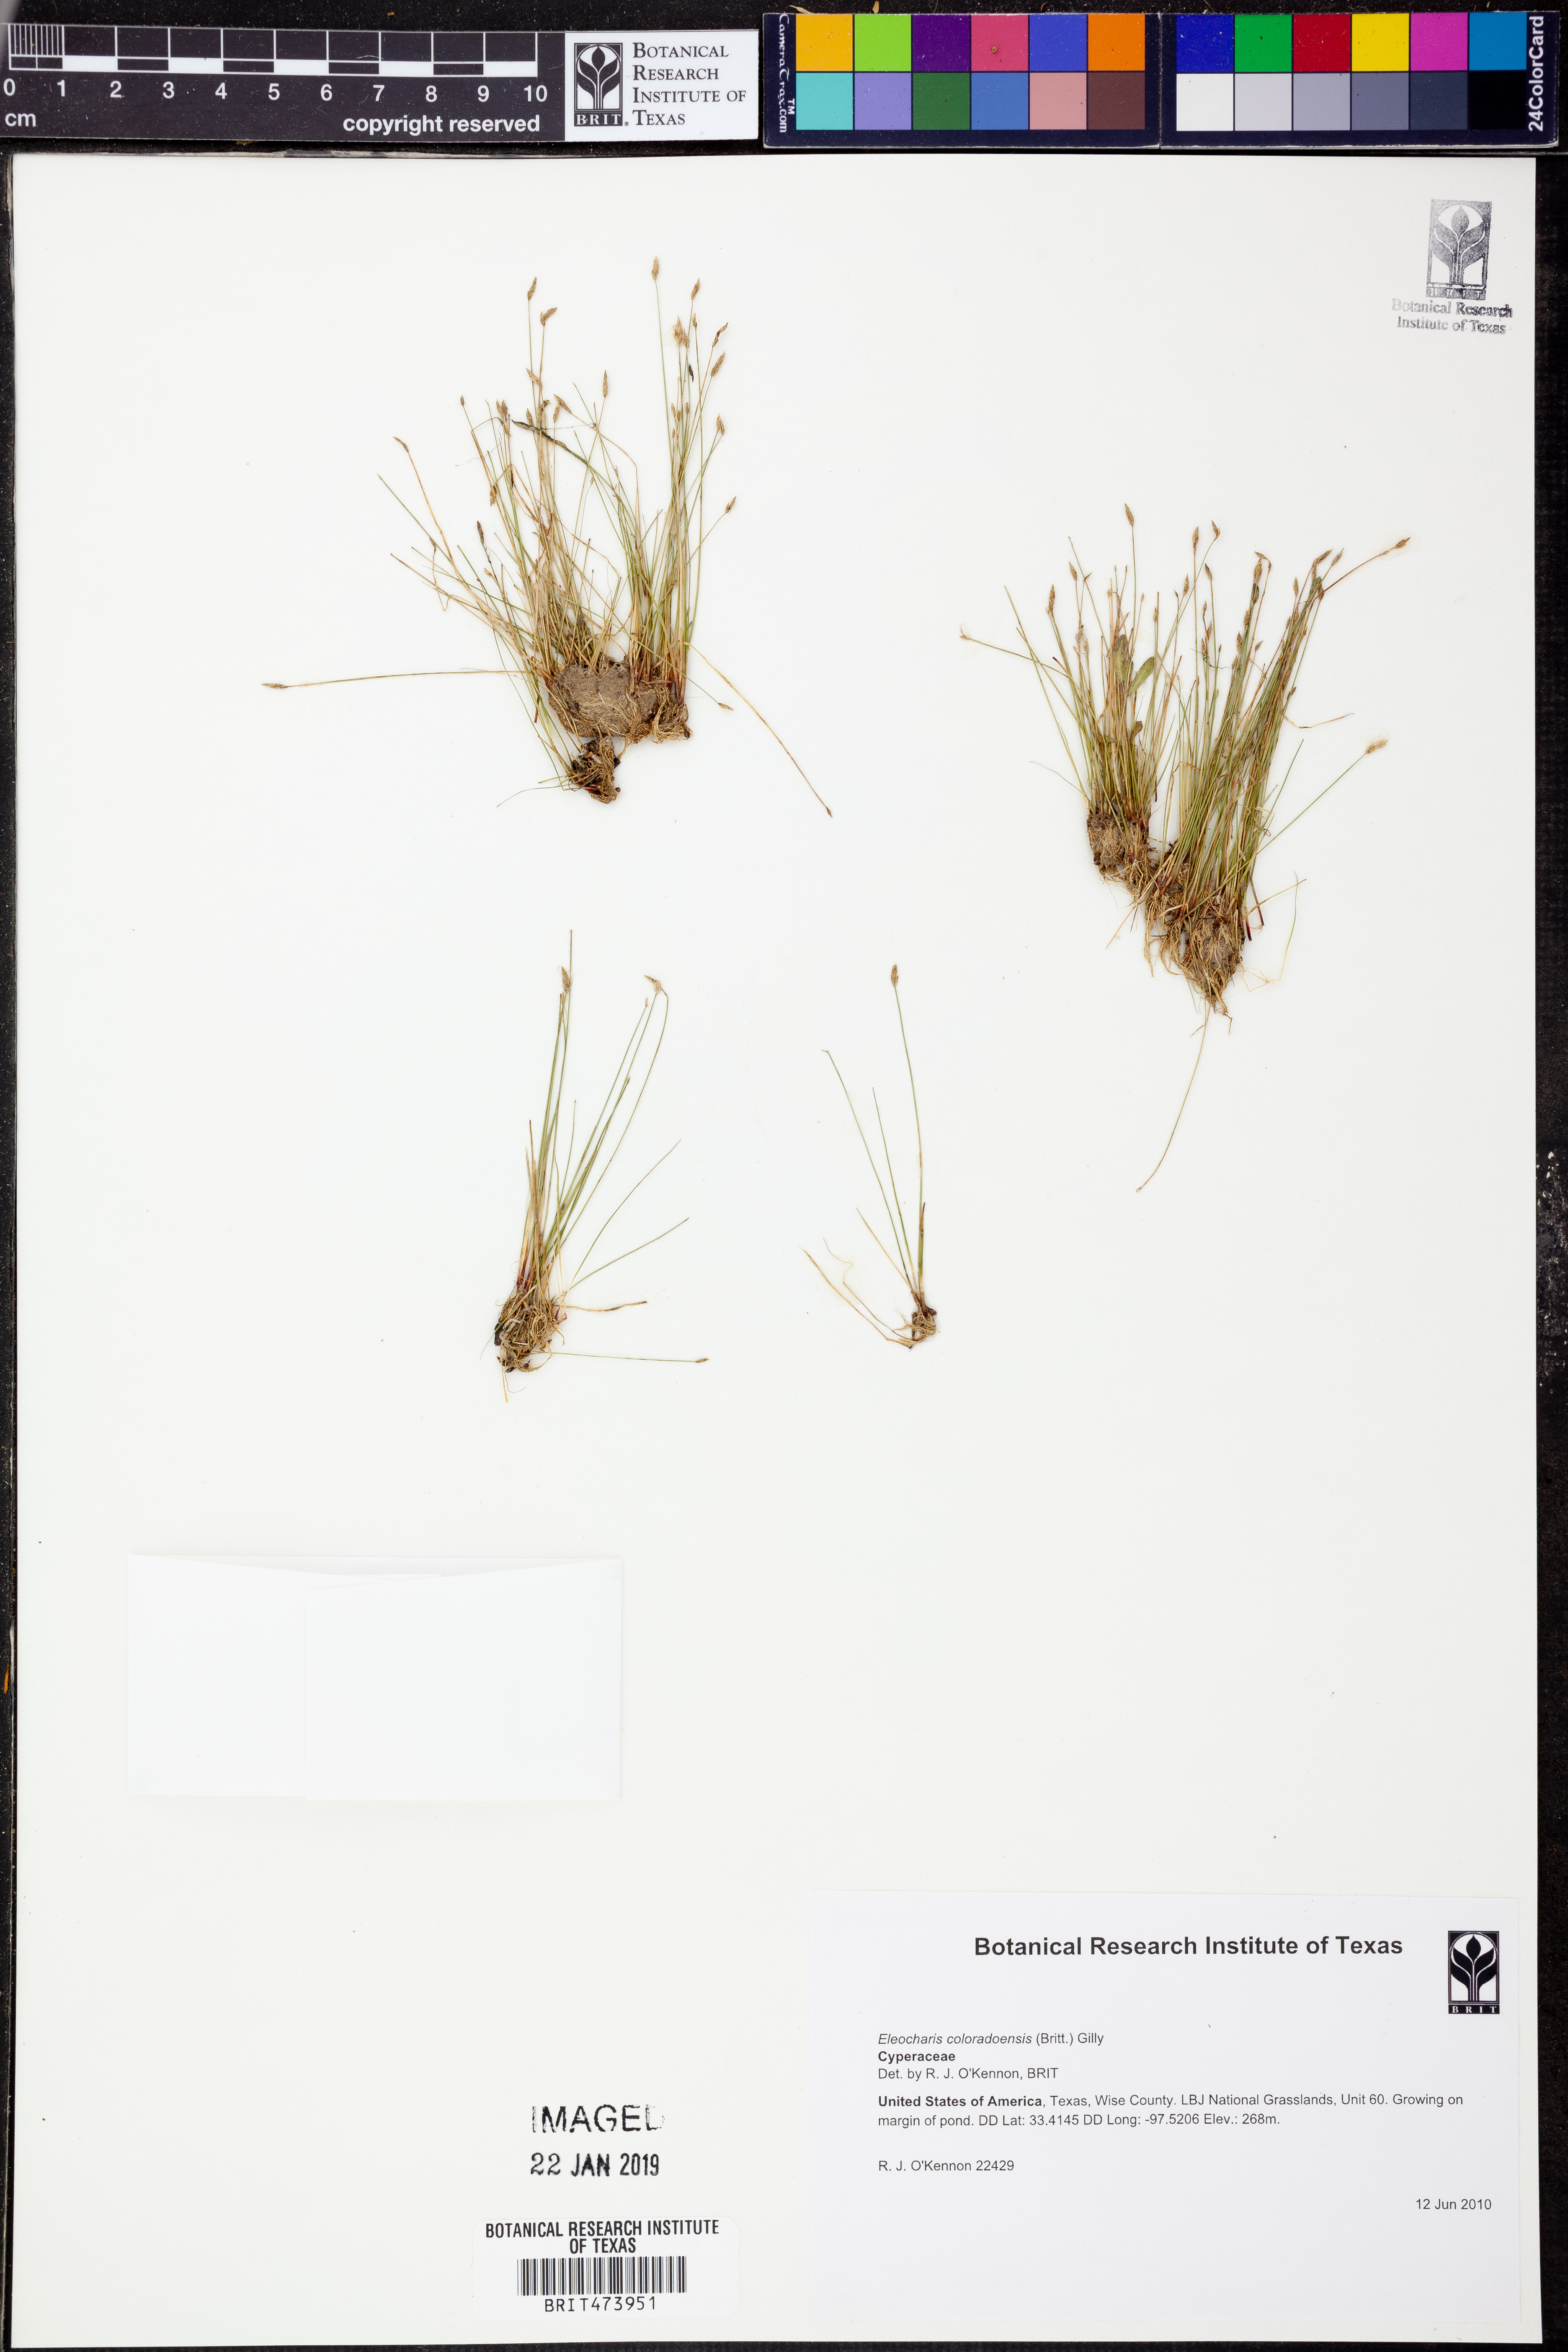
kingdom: Plantae
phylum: Tracheophyta
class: Liliopsida
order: Poales
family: Cyperaceae
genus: Eleocharis
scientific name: Eleocharis coloradoensis
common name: Colorado spikerush
